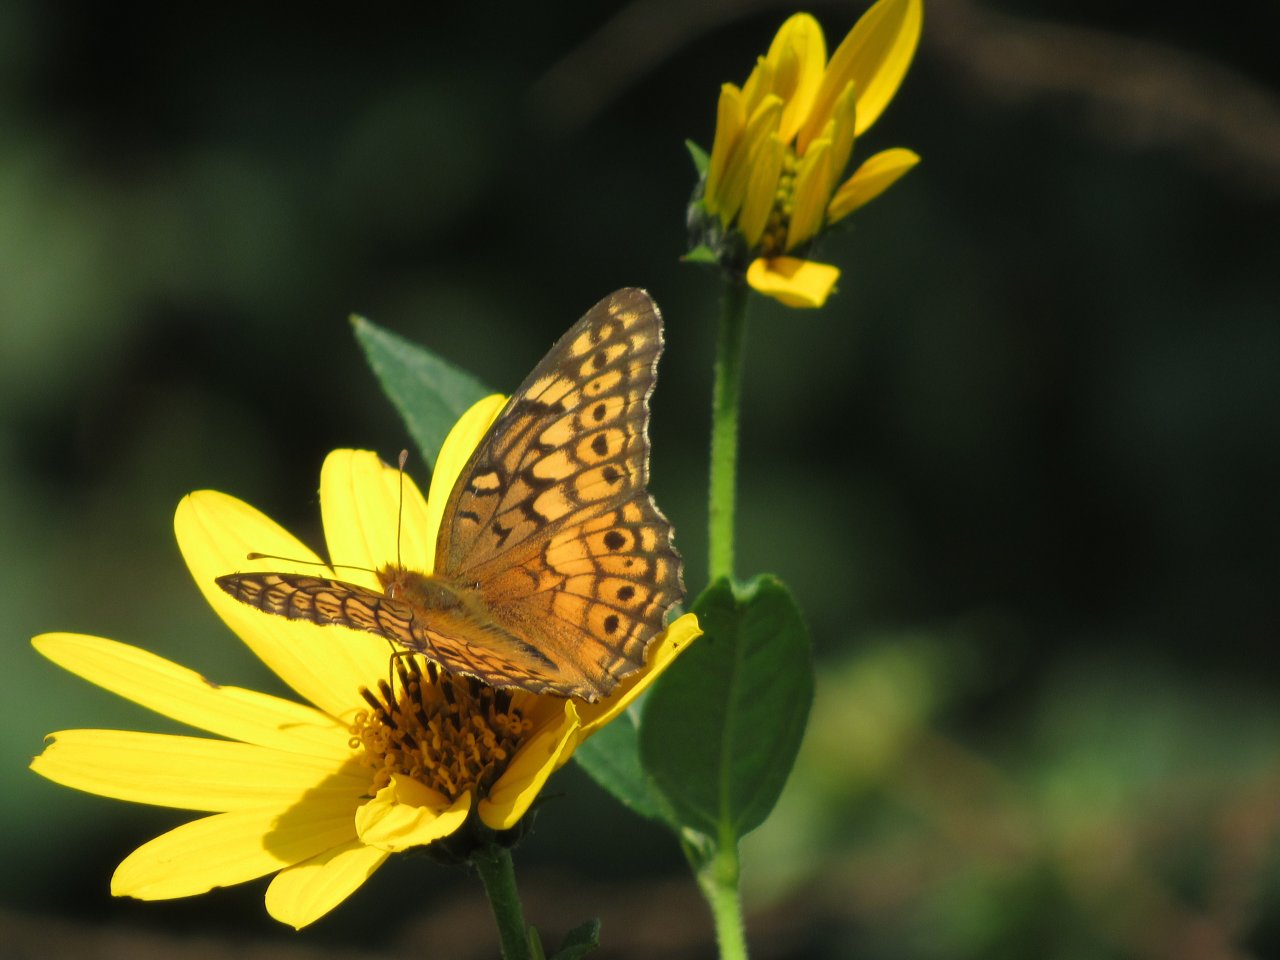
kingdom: Animalia
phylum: Arthropoda
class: Insecta
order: Lepidoptera
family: Nymphalidae
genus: Euptoieta
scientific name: Euptoieta claudia
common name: Variegated Fritillary
